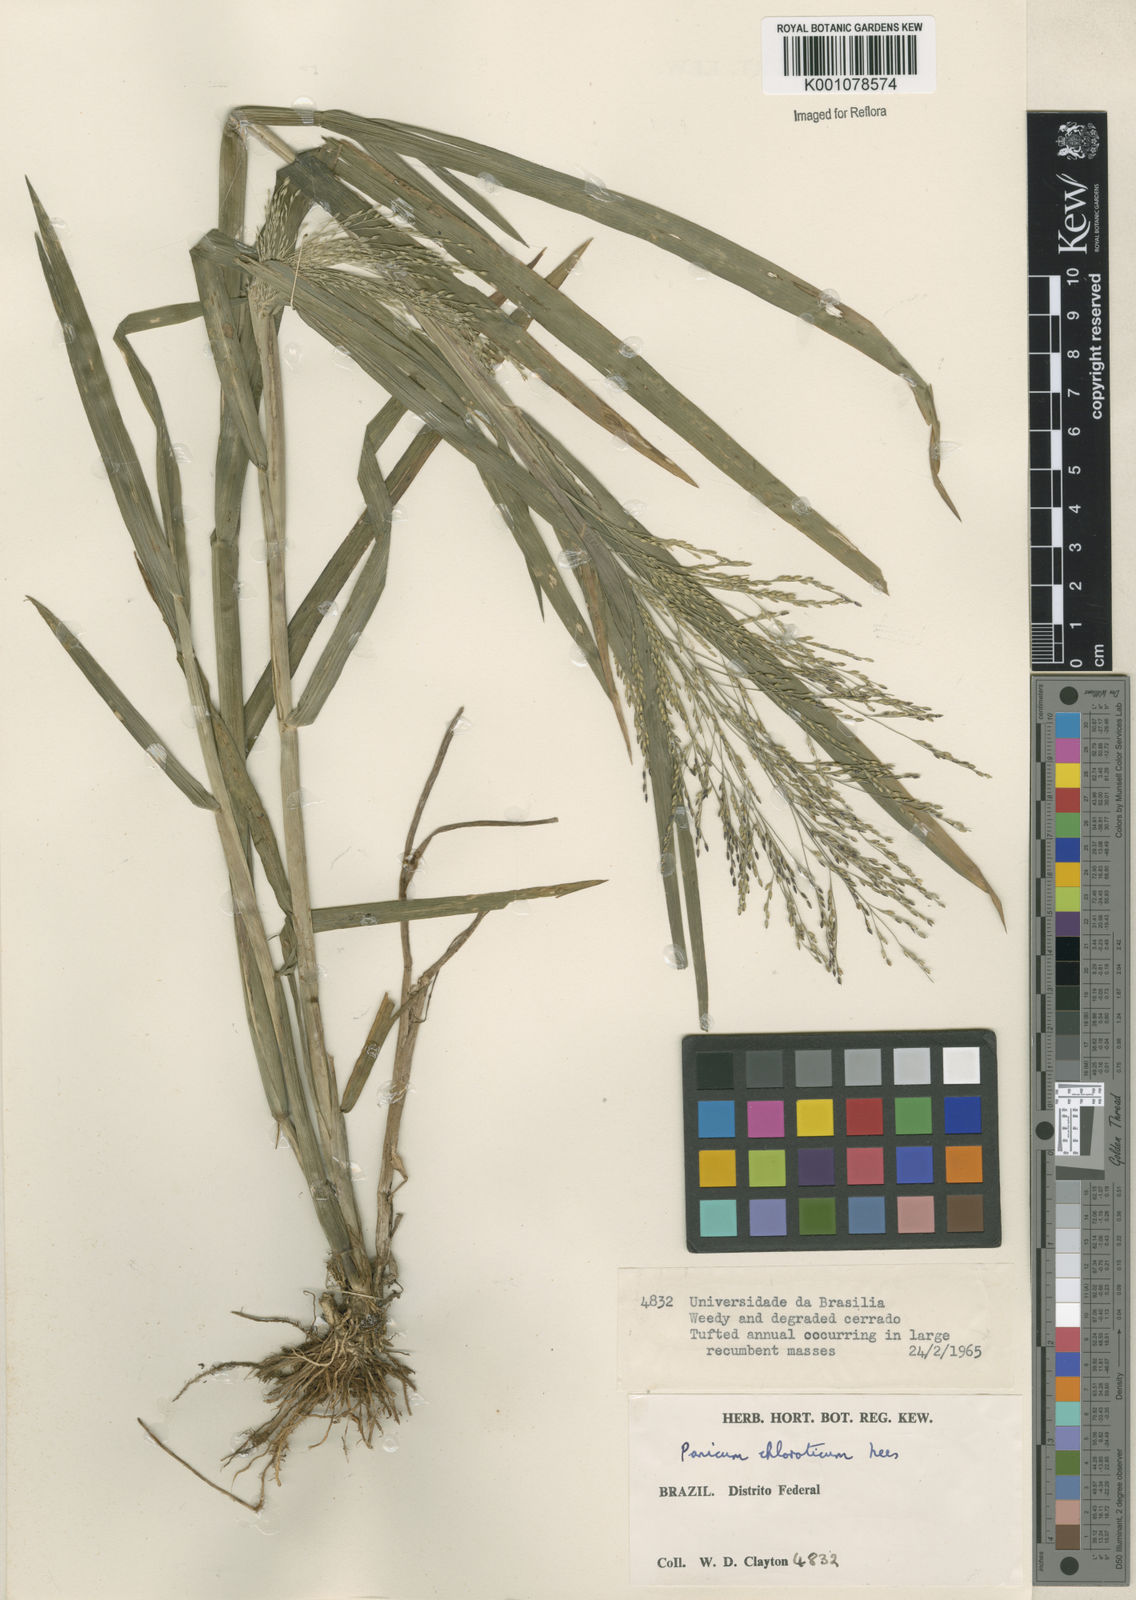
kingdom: Plantae
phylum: Tracheophyta
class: Liliopsida
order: Poales
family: Poaceae
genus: Panicum
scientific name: Panicum dichotomiflorum
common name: Autumn millet
